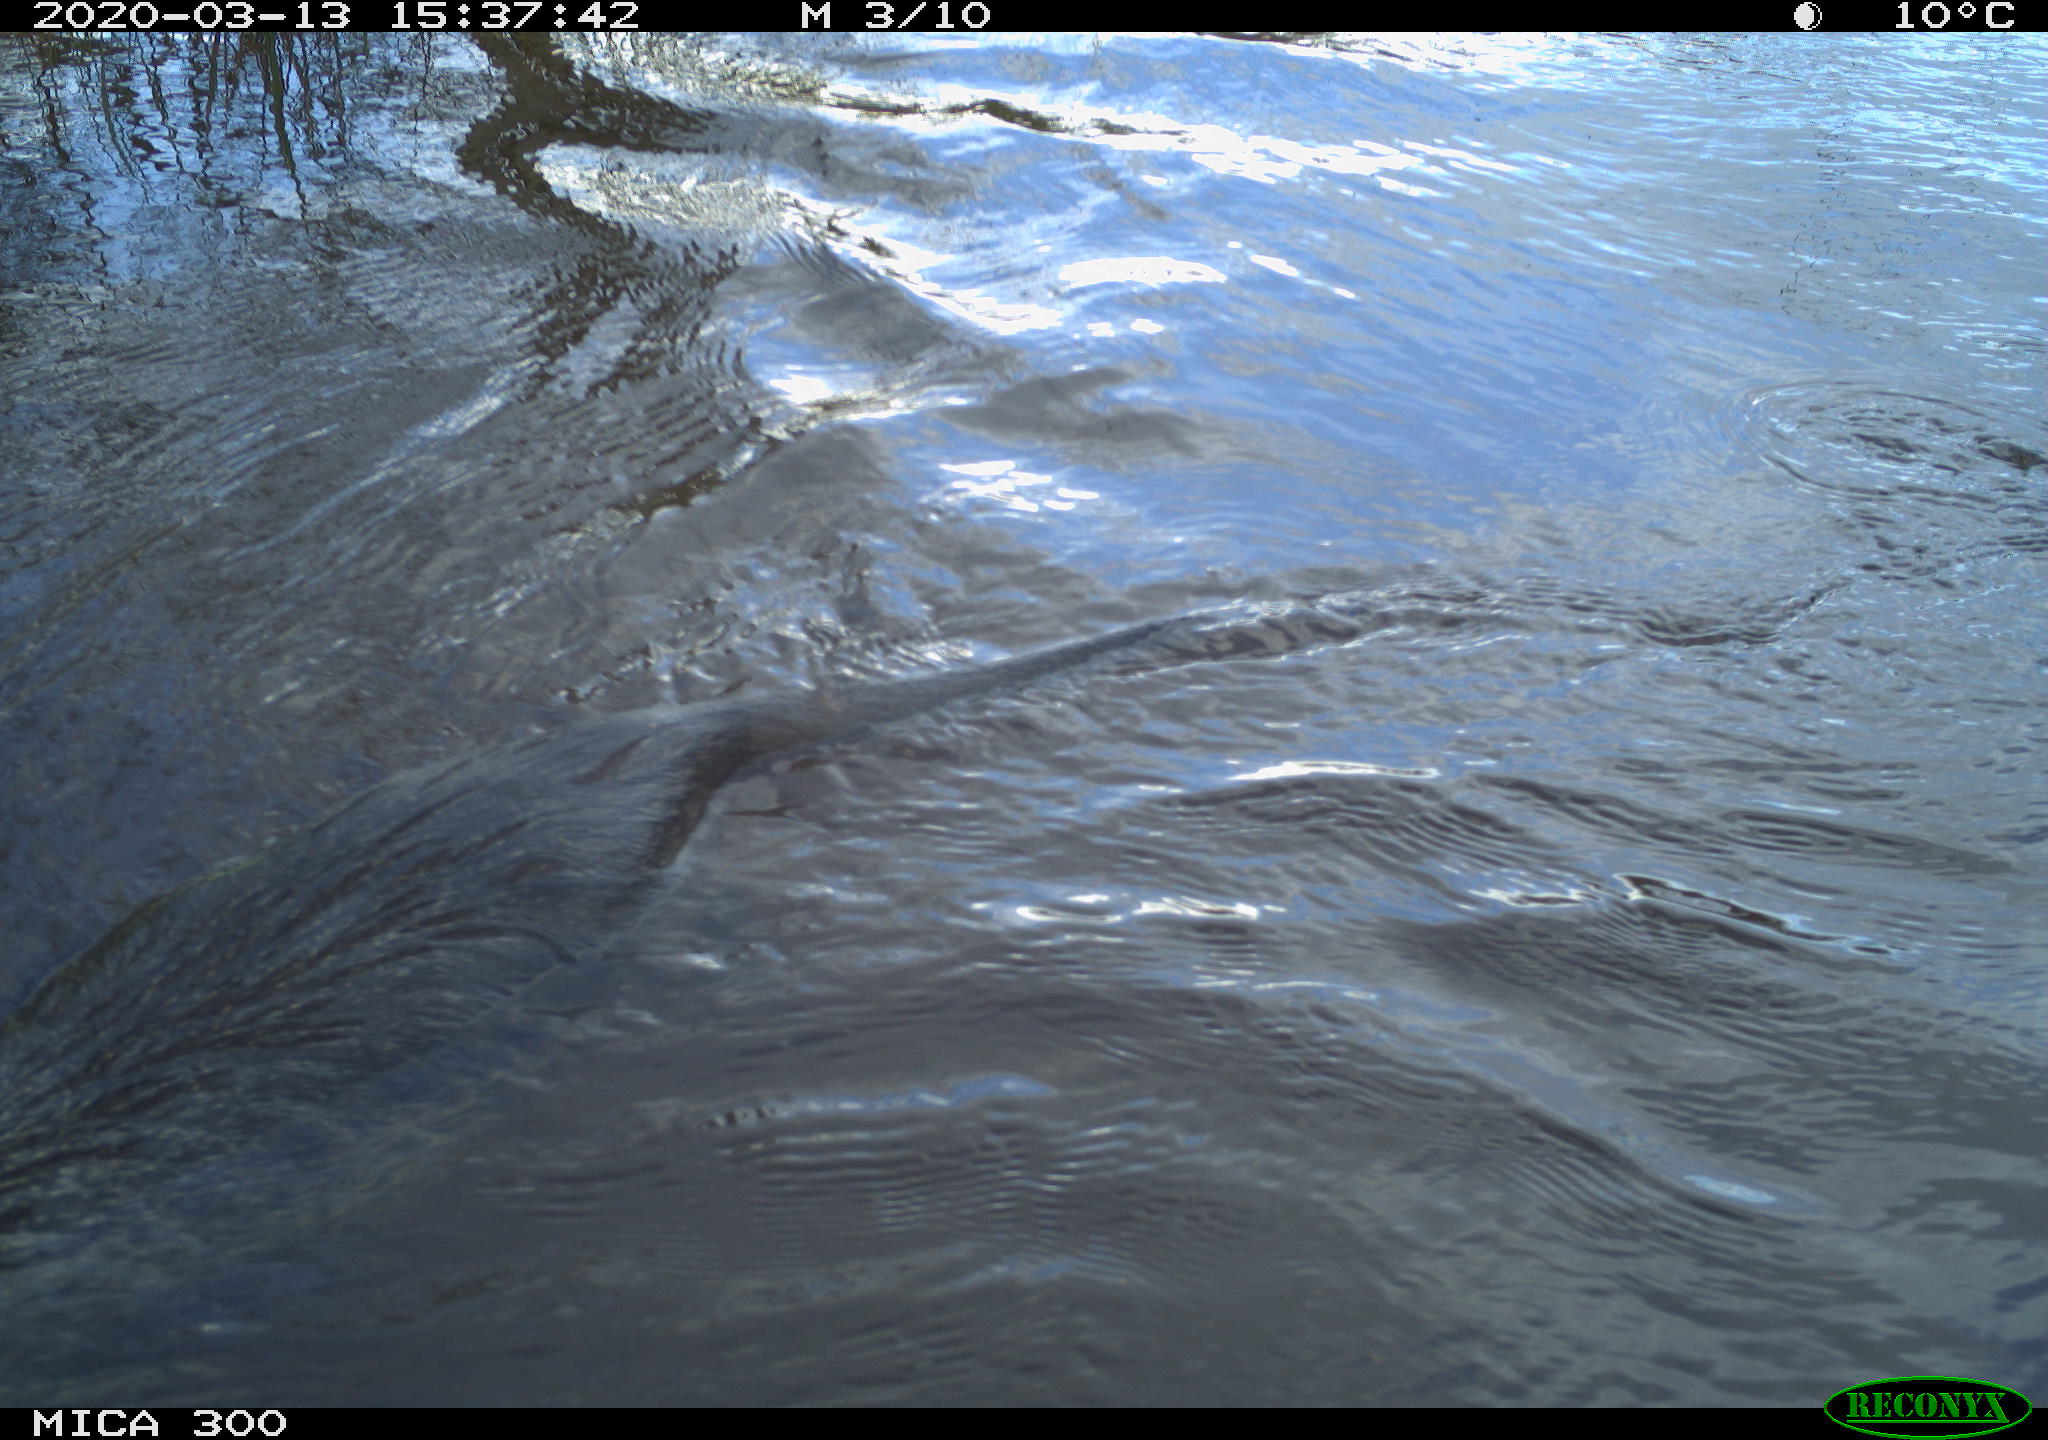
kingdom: Animalia
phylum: Chordata
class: Mammalia
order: Rodentia
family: Myocastoridae
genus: Myocastor
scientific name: Myocastor coypus
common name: Coypu
